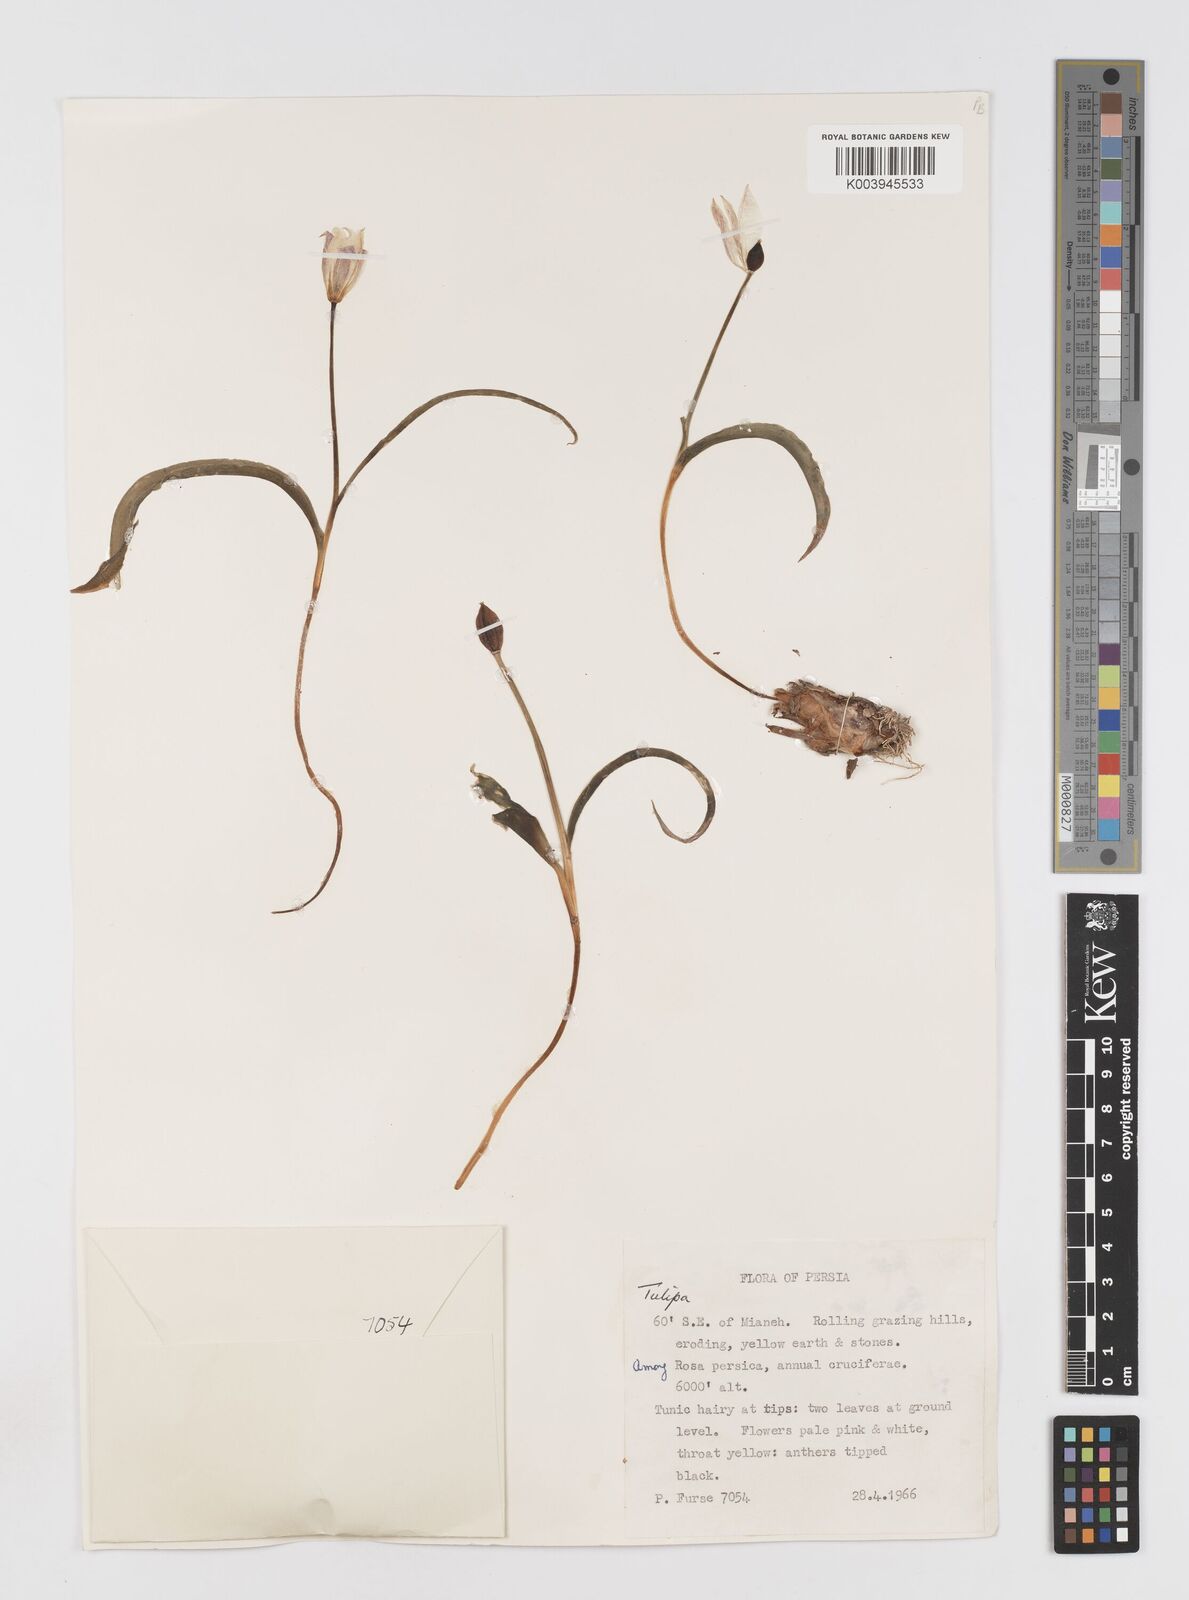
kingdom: Plantae
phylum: Tracheophyta
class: Liliopsida
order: Liliales
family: Liliaceae
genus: Tulipa
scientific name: Tulipa
